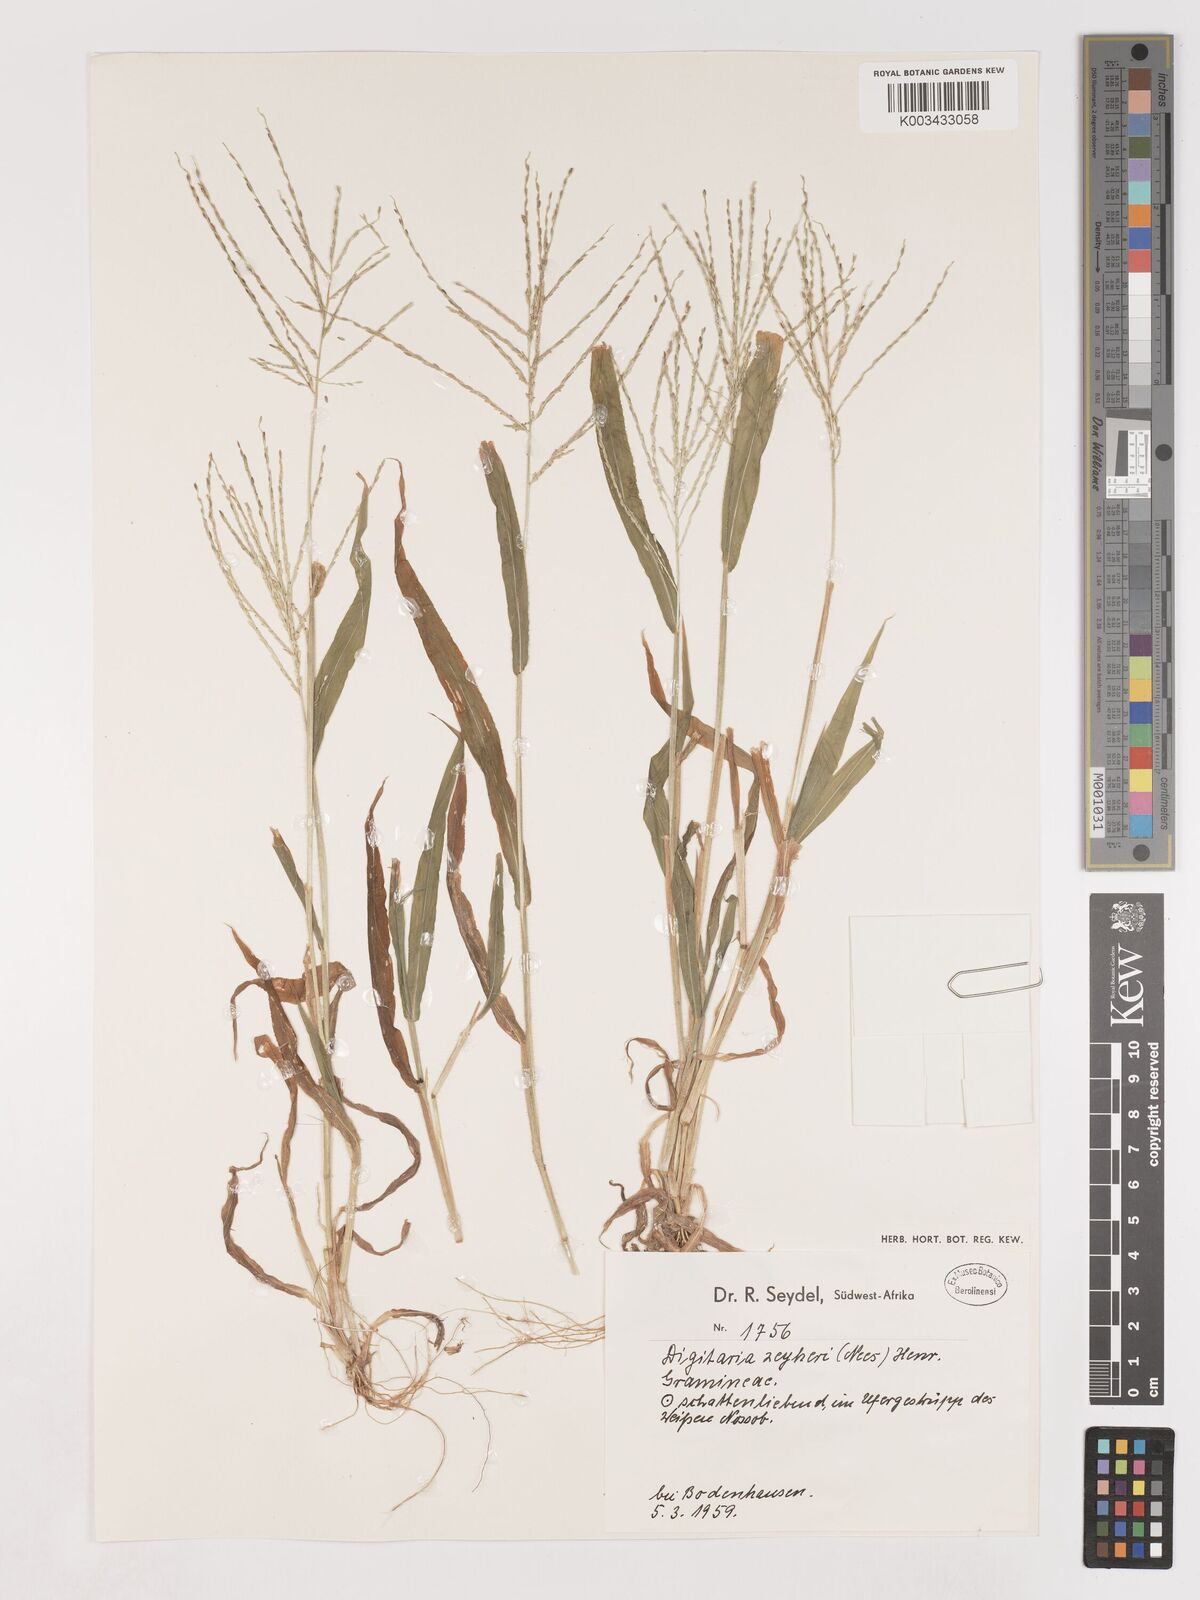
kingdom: Plantae
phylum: Tracheophyta
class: Liliopsida
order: Poales
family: Poaceae
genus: Digitaria
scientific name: Digitaria velutina
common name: Long-plume finger grass
